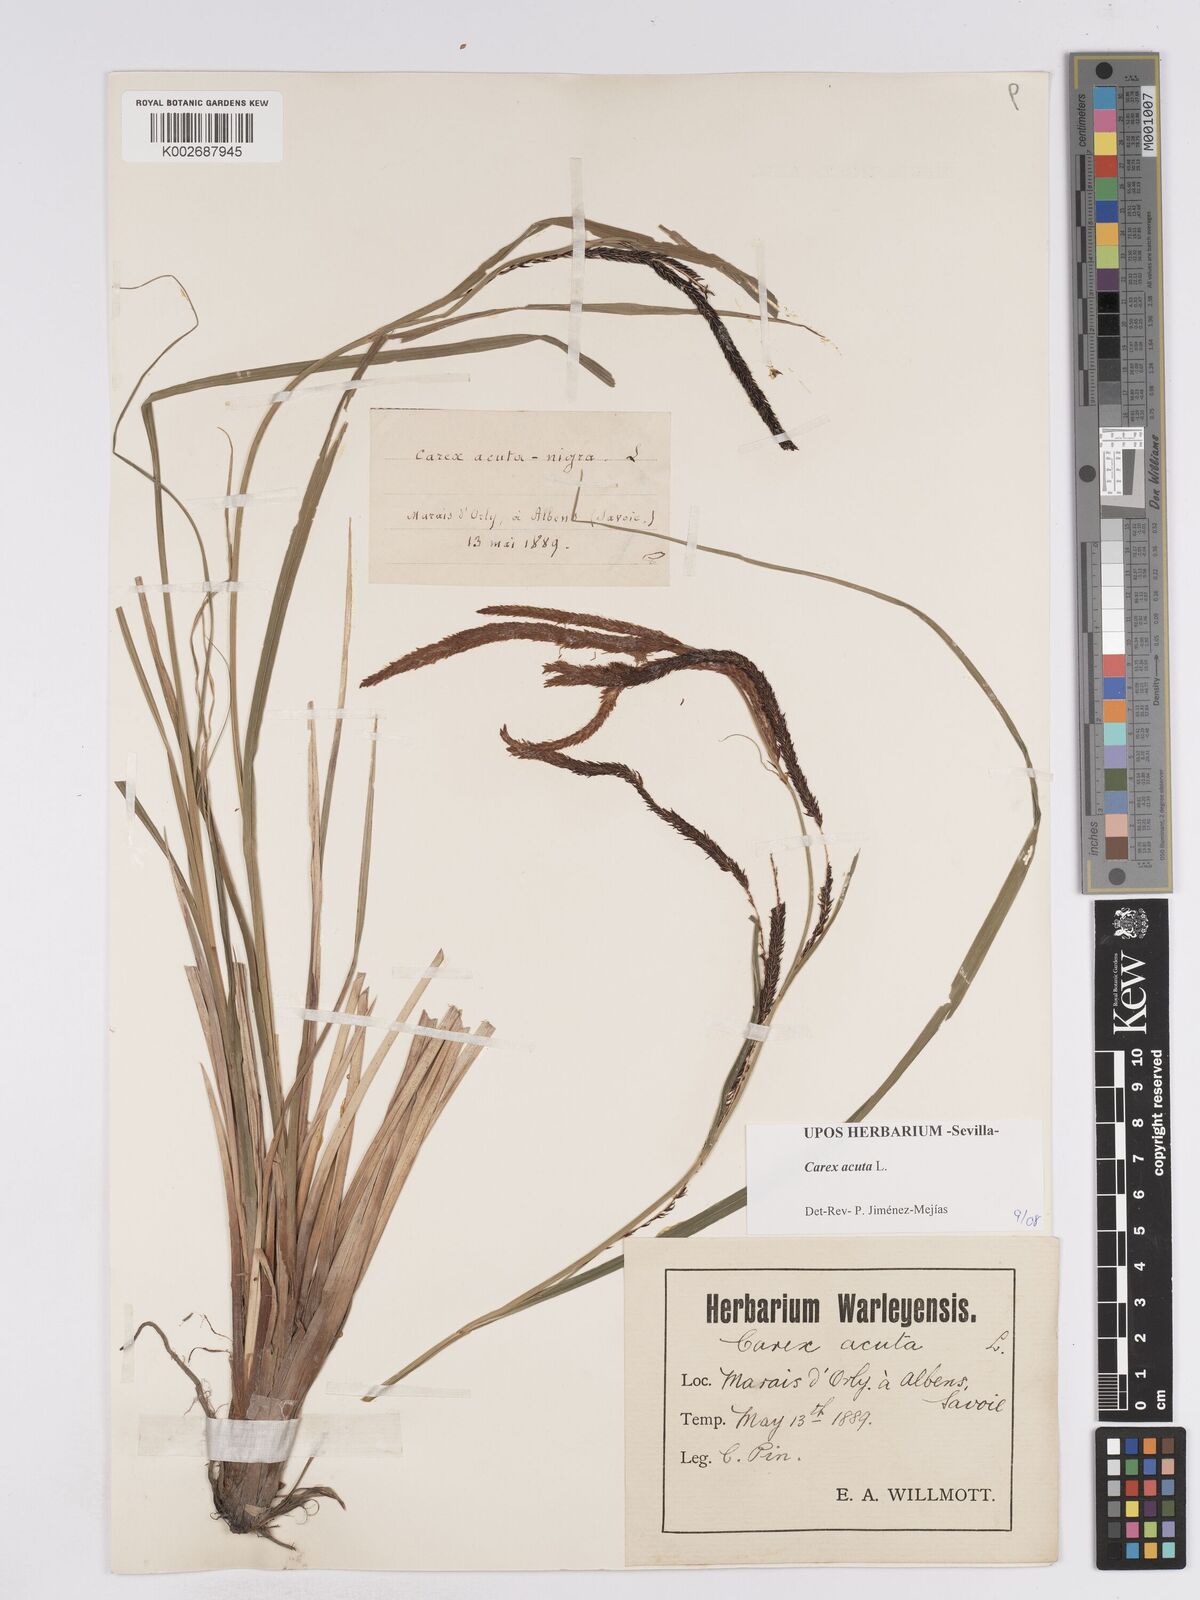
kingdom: Plantae
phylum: Tracheophyta
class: Liliopsida
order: Poales
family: Cyperaceae
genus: Carex
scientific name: Carex acuta
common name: Slender tufted-sedge
